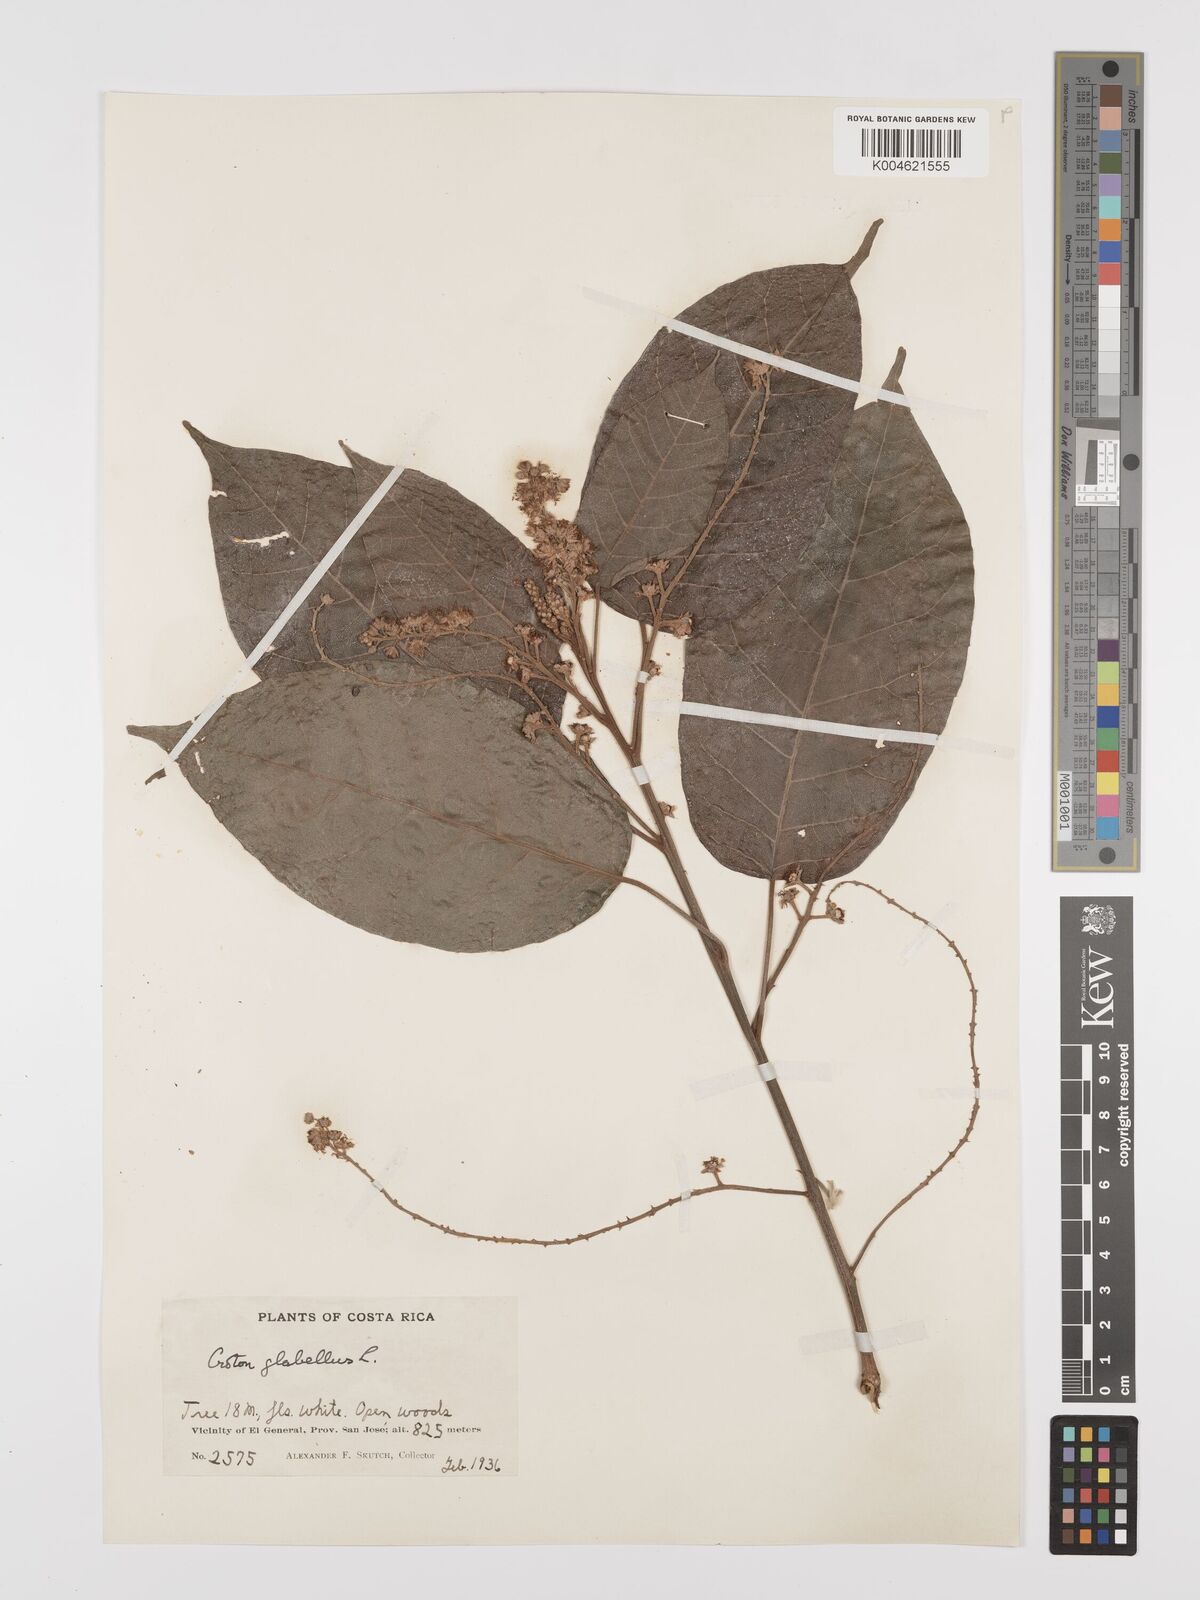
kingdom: Plantae
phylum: Tracheophyta
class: Magnoliopsida
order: Malpighiales
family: Euphorbiaceae
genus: Croton
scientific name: Croton glabellus
